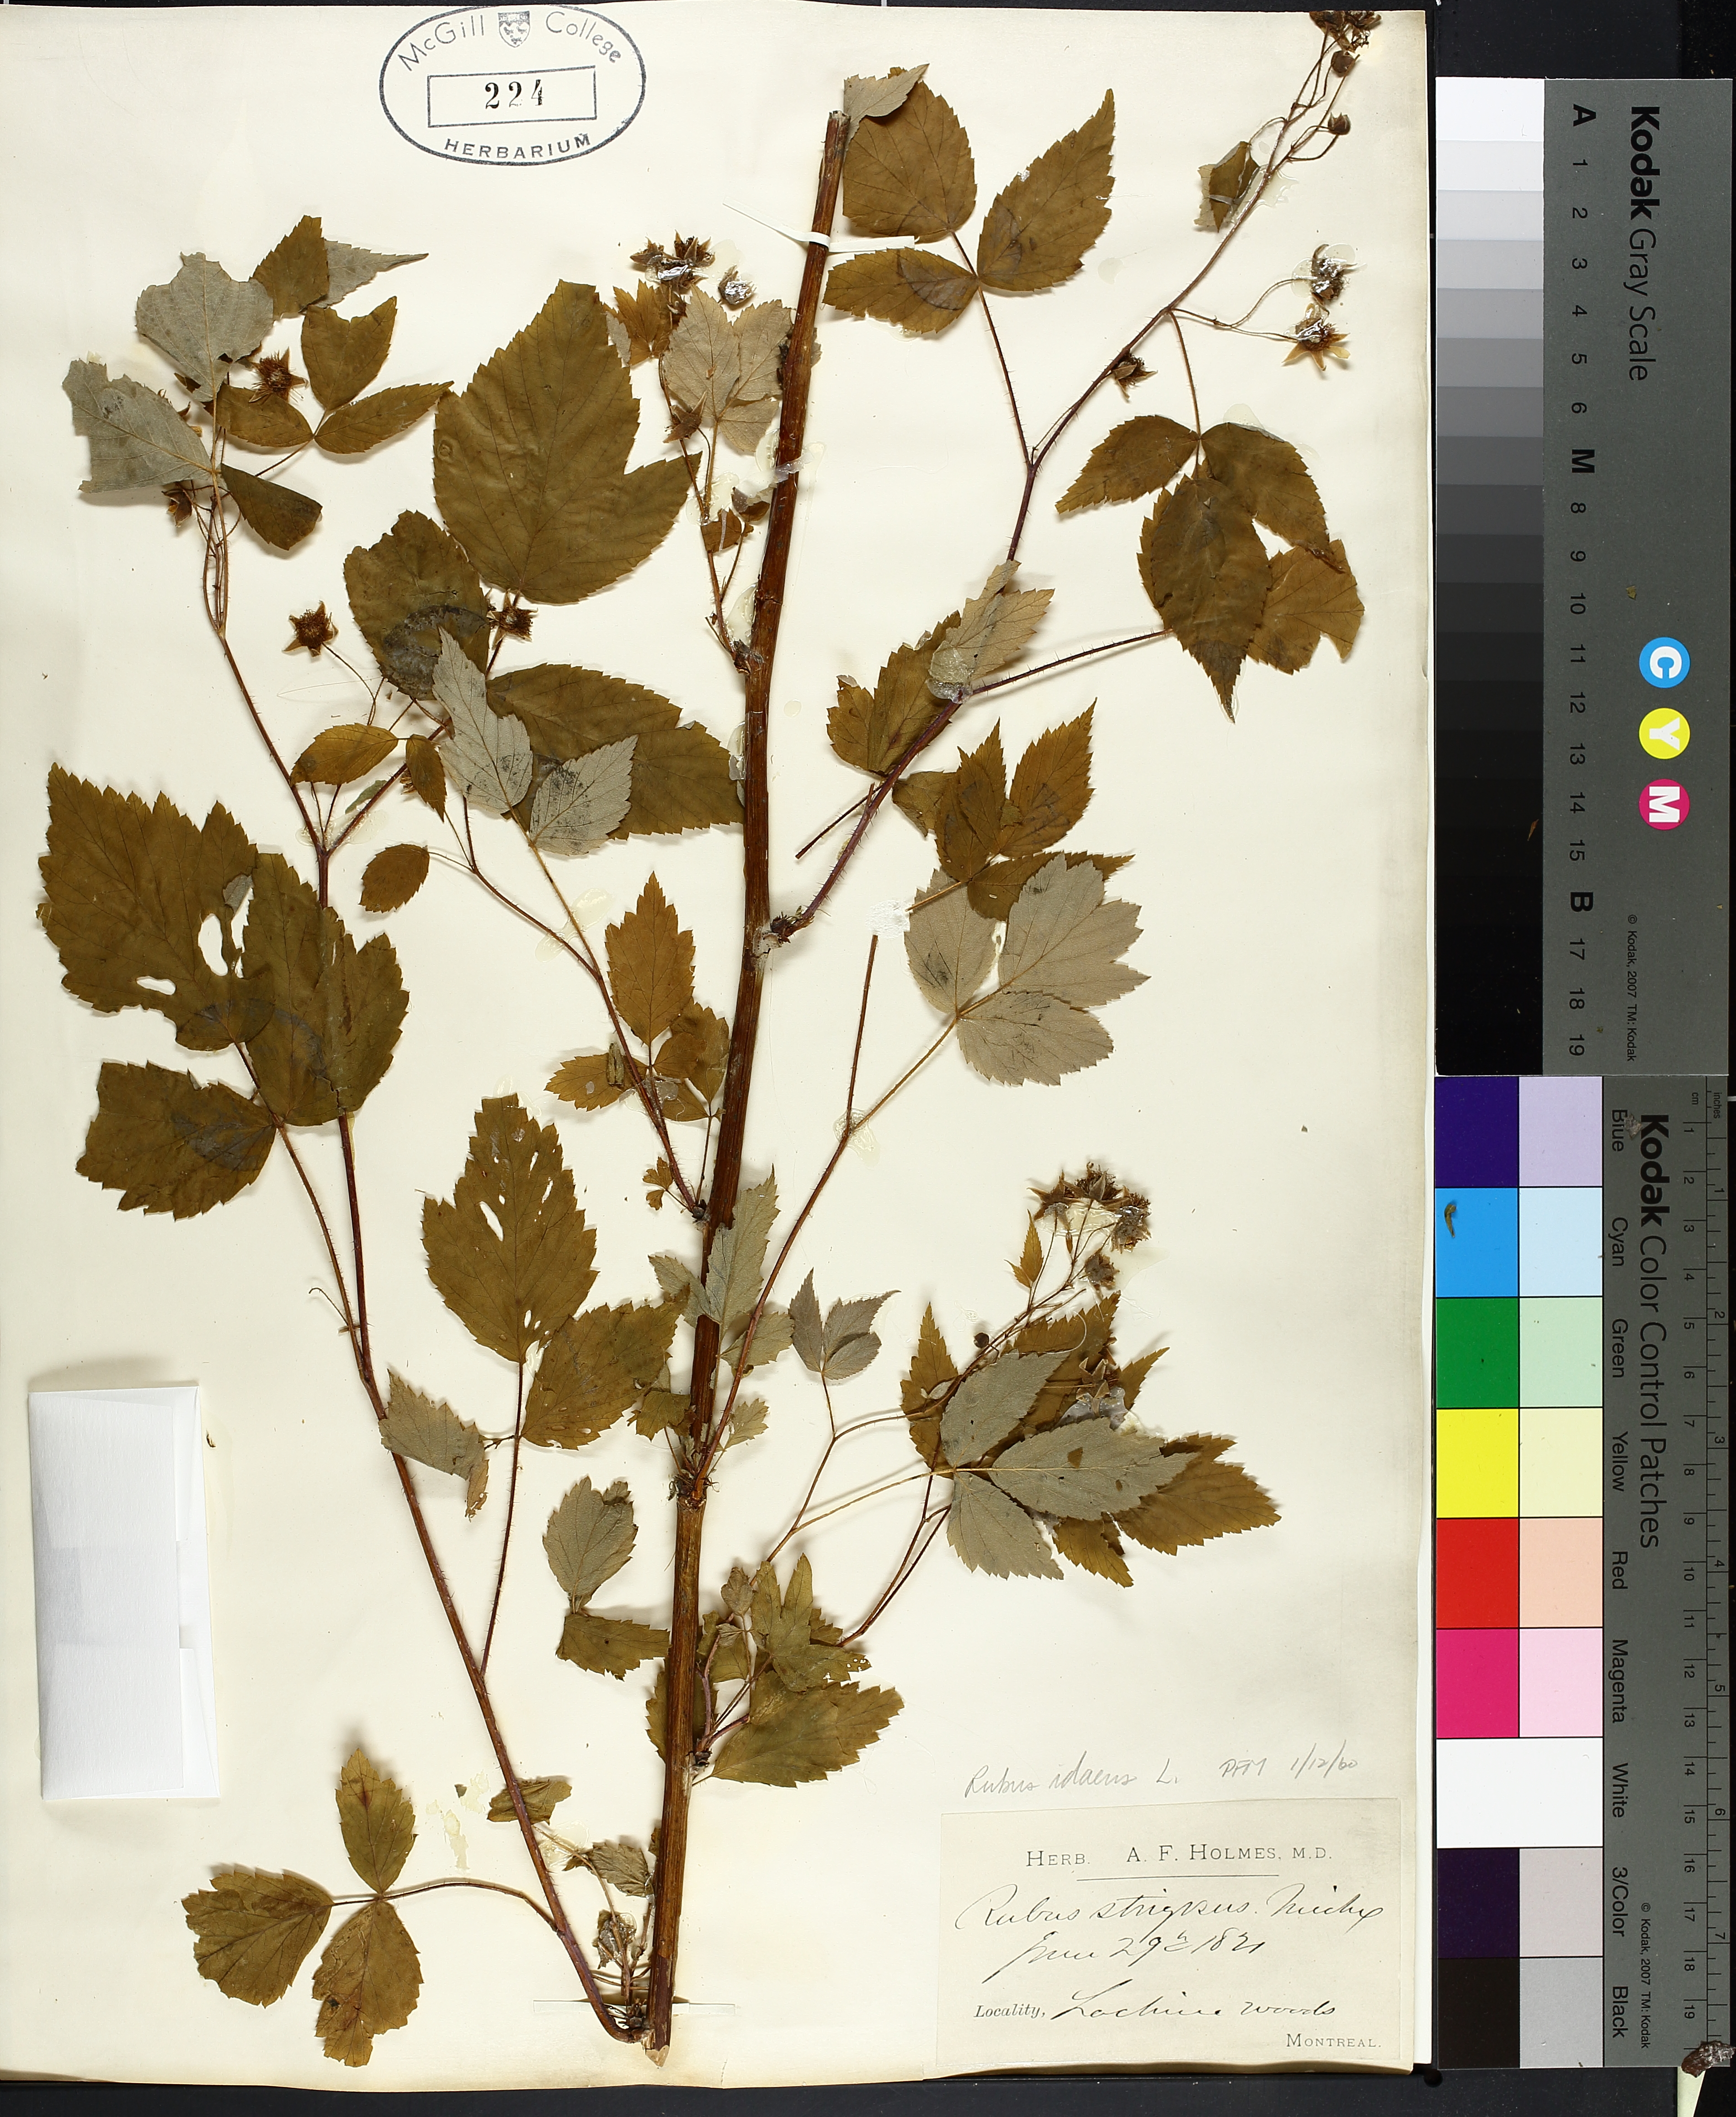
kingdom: Plantae
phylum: Tracheophyta
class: Magnoliopsida
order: Rosales
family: Rosaceae
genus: Rubus
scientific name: Rubus idaeus
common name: Raspberry
